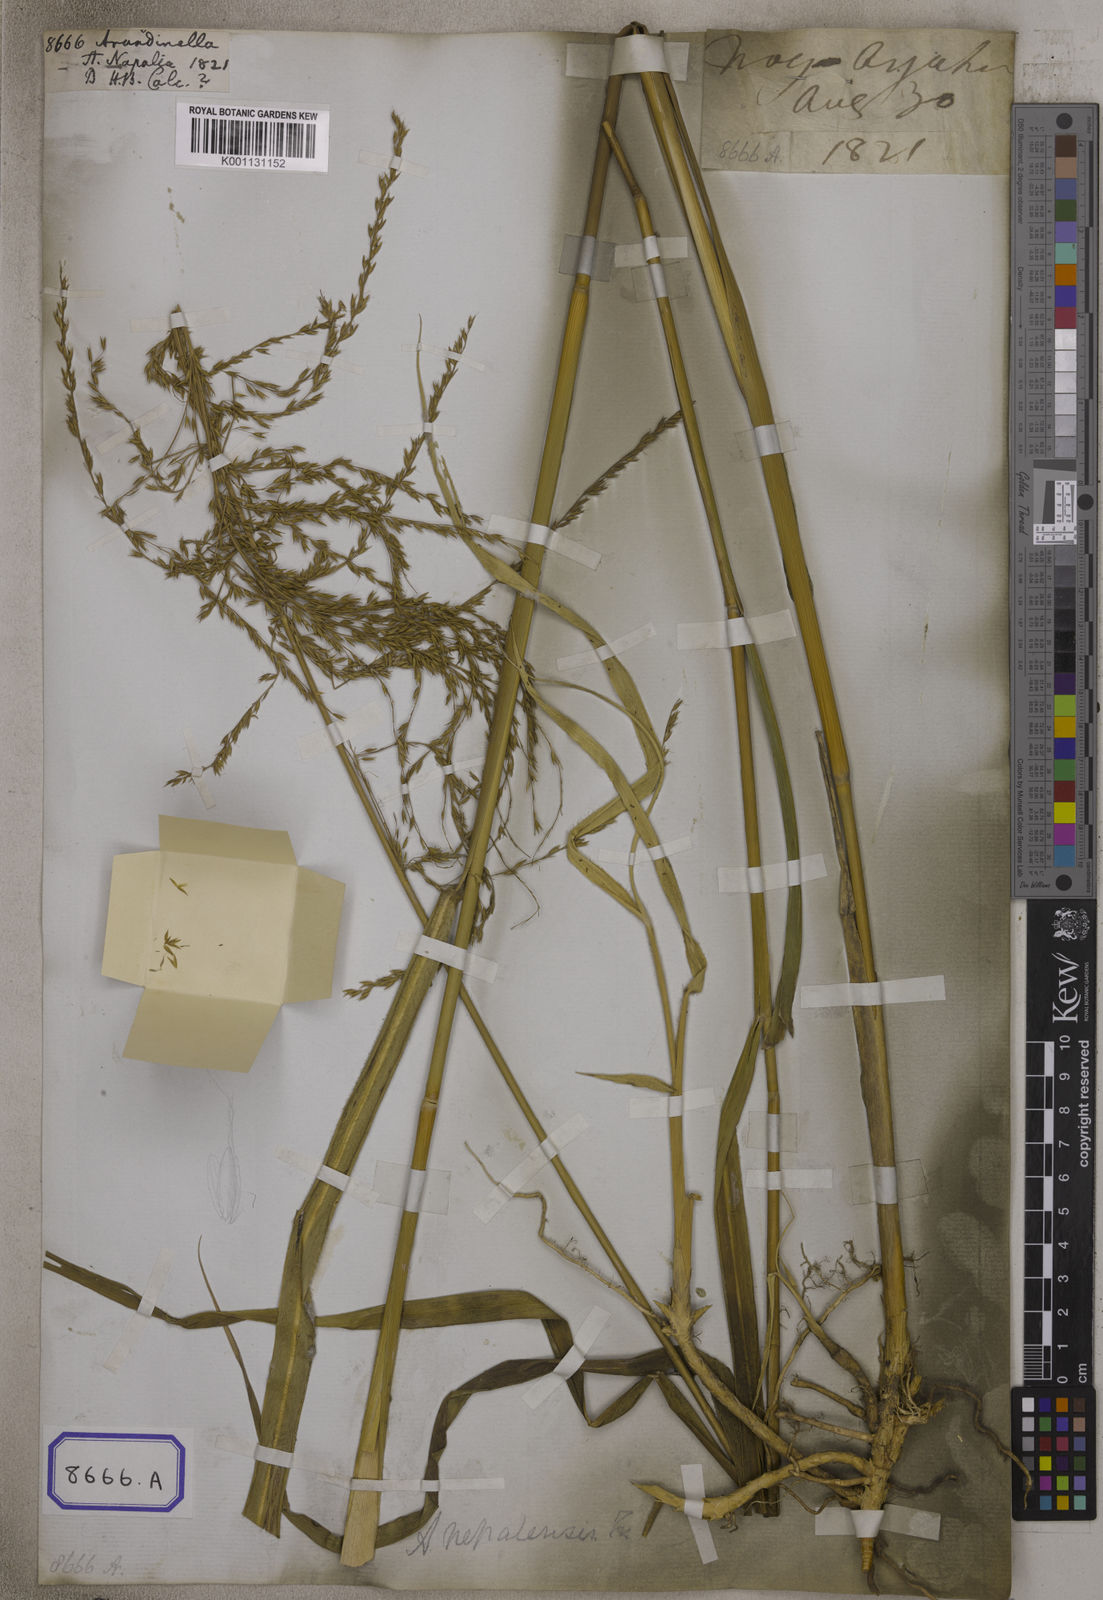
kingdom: Plantae
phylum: Tracheophyta
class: Liliopsida
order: Poales
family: Poaceae
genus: Arundinella
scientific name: Arundinella
